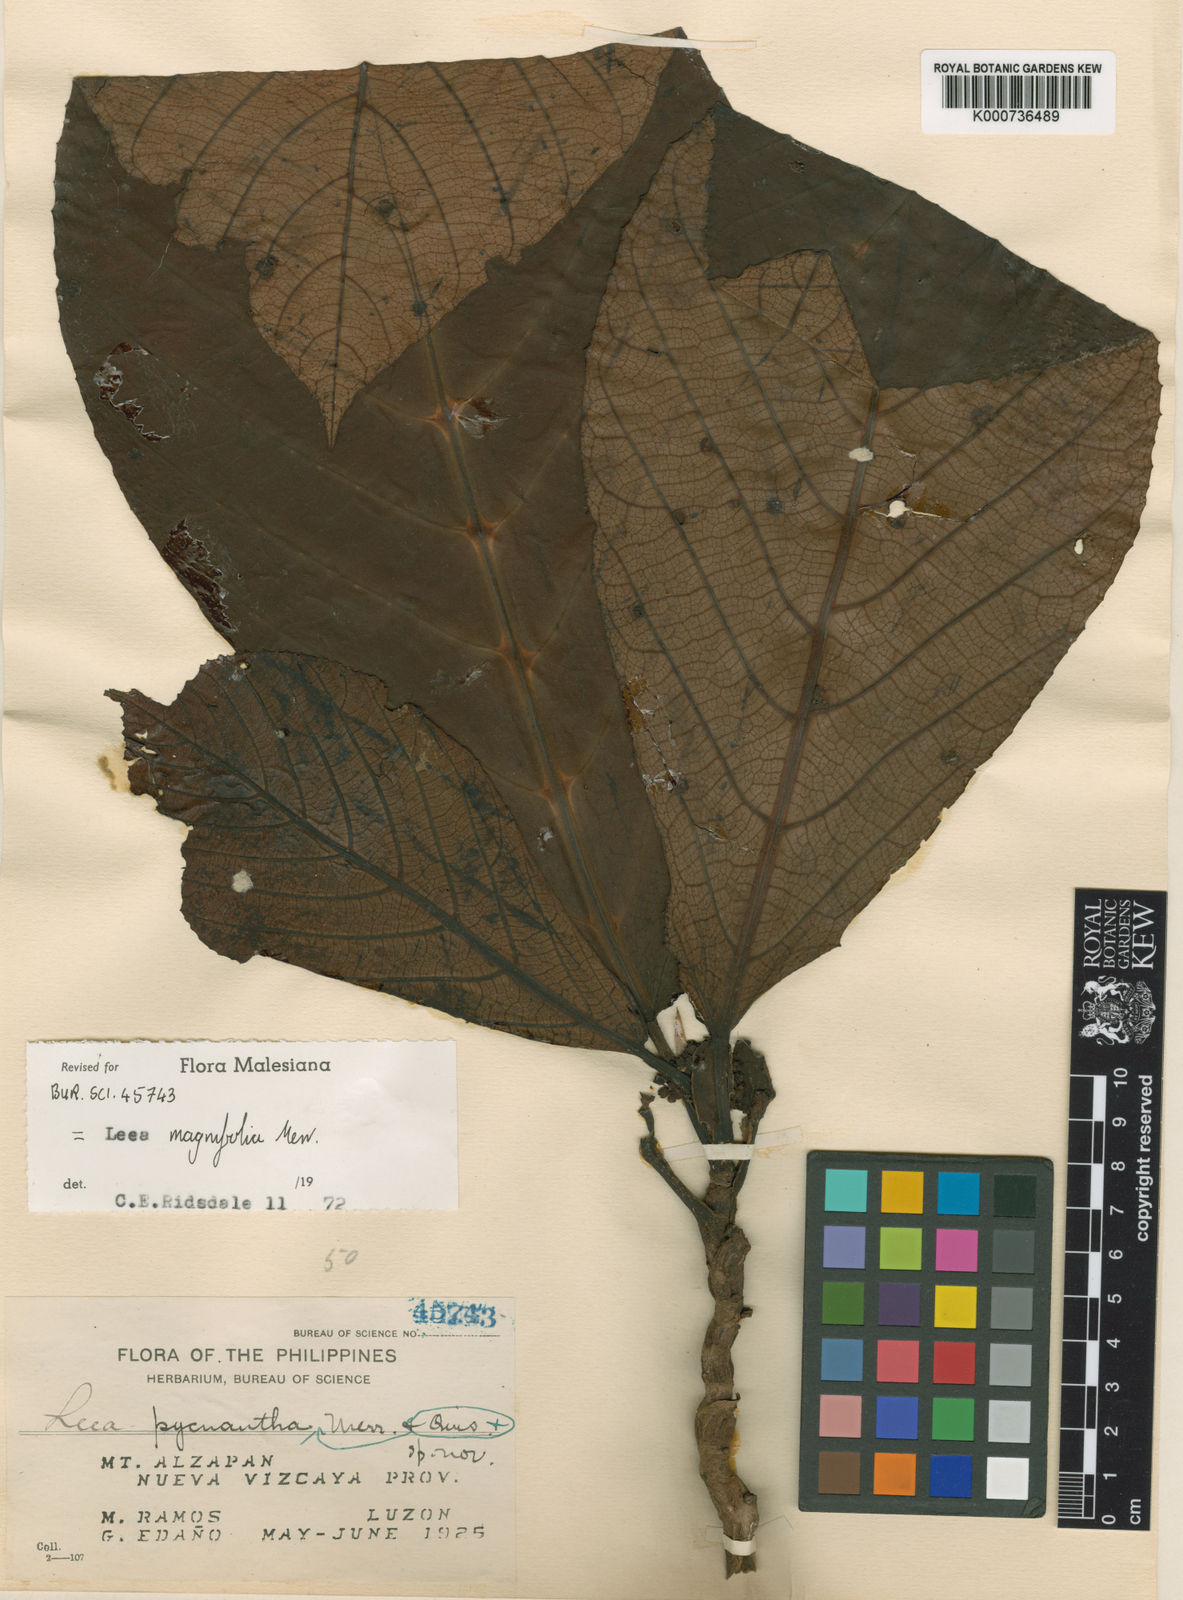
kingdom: Plantae
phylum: Tracheophyta
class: Magnoliopsida
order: Vitales
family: Vitaceae
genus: Leea
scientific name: Leea magnifolia
